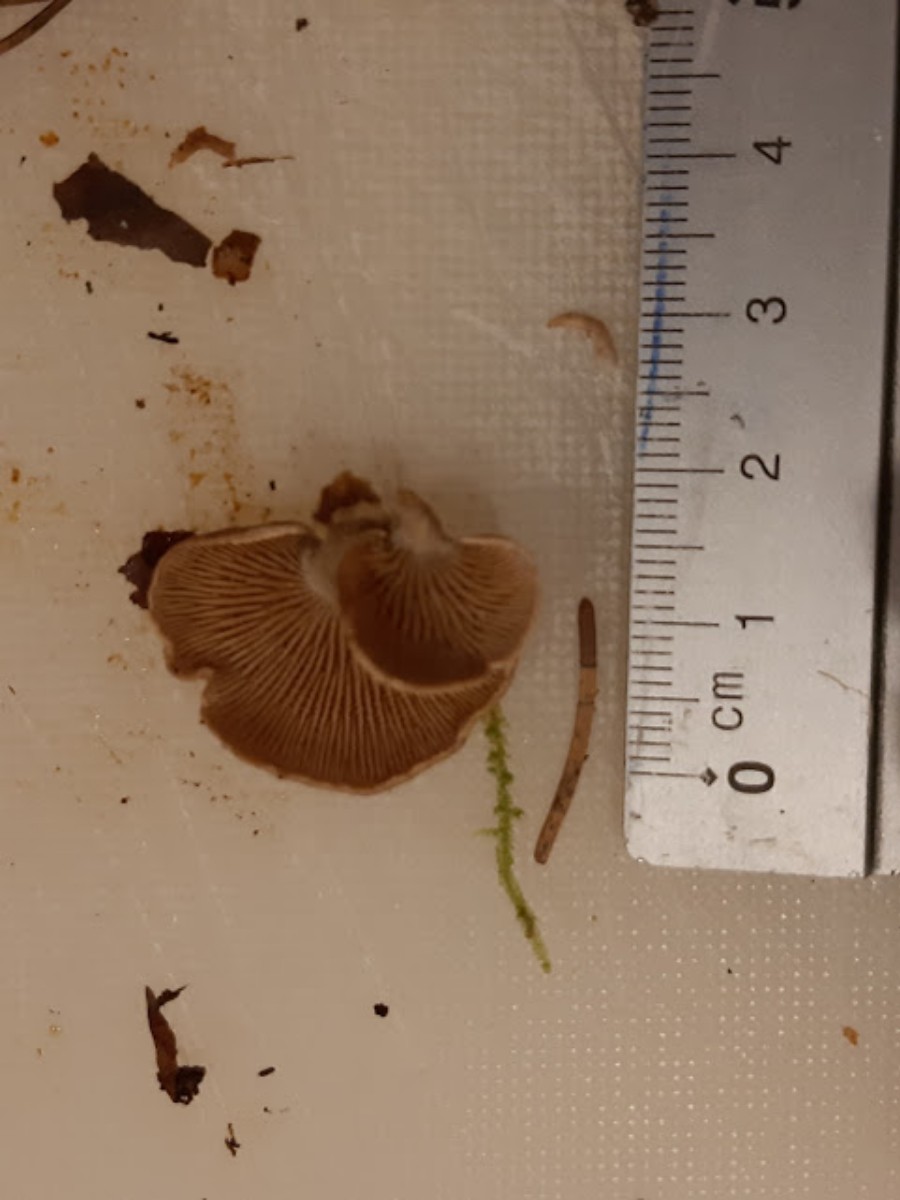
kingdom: Fungi
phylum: Basidiomycota
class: Agaricomycetes
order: Agaricales
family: Mycenaceae
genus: Panellus
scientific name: Panellus stipticus
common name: kliddet epaulethat
